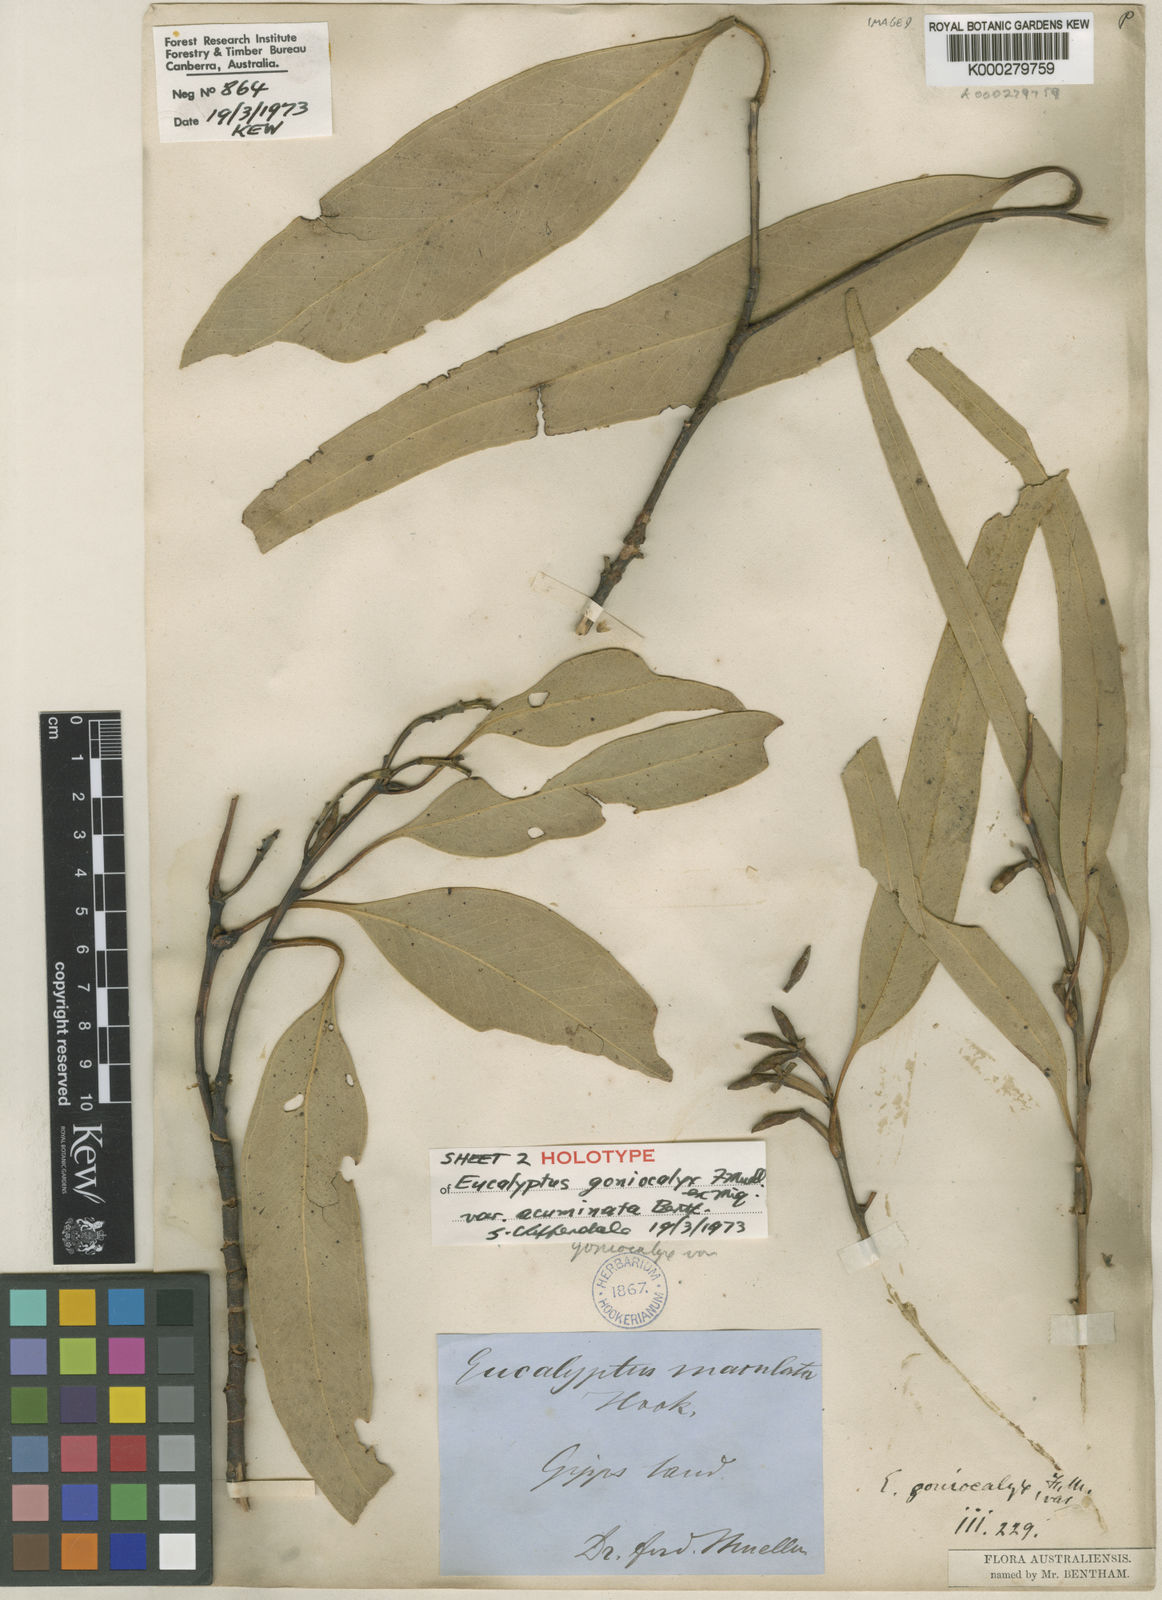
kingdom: Plantae
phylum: Tracheophyta
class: Magnoliopsida
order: Myrtales
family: Myrtaceae
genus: Eucalyptus
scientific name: Eucalyptus goniocalyx
